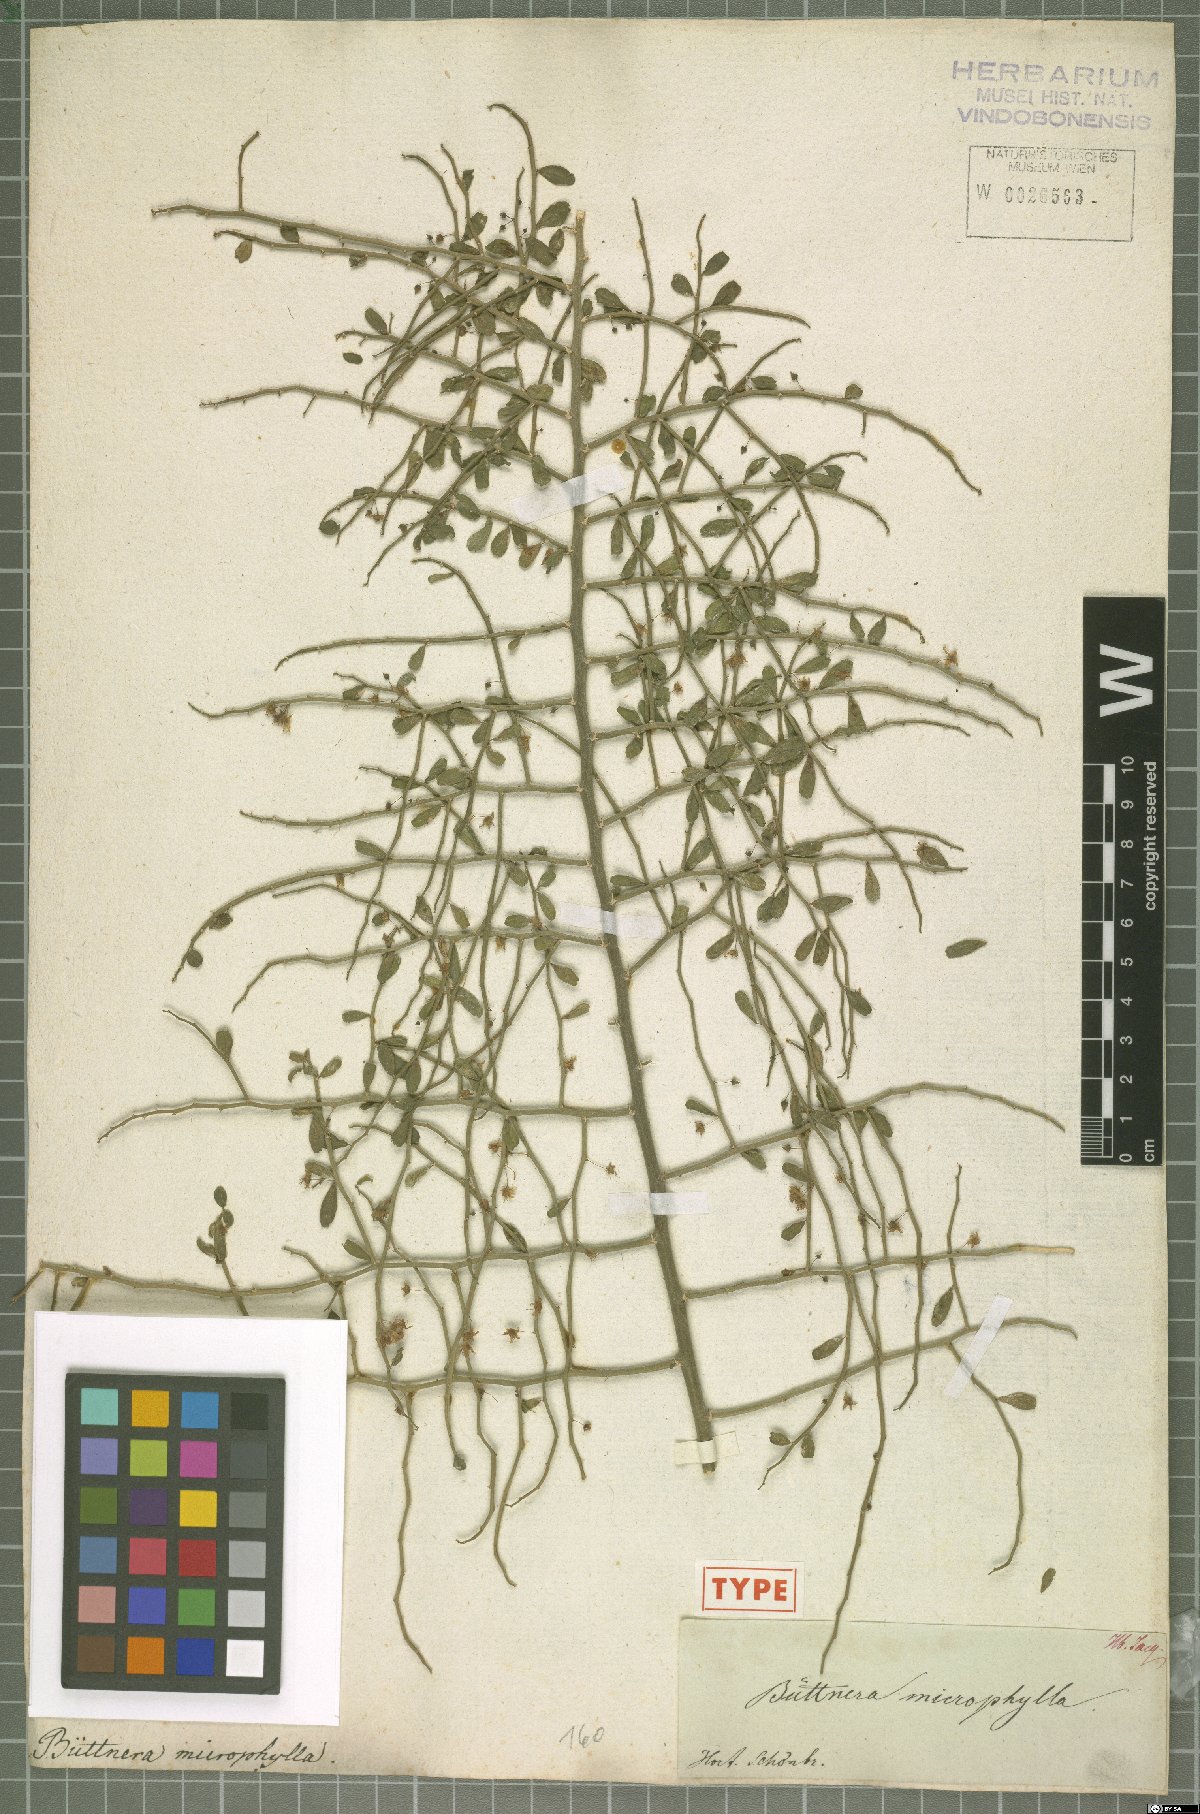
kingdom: Plantae
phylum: Tracheophyta
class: Magnoliopsida
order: Malvales
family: Malvaceae
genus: Byttneria
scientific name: Byttneria microphylla
